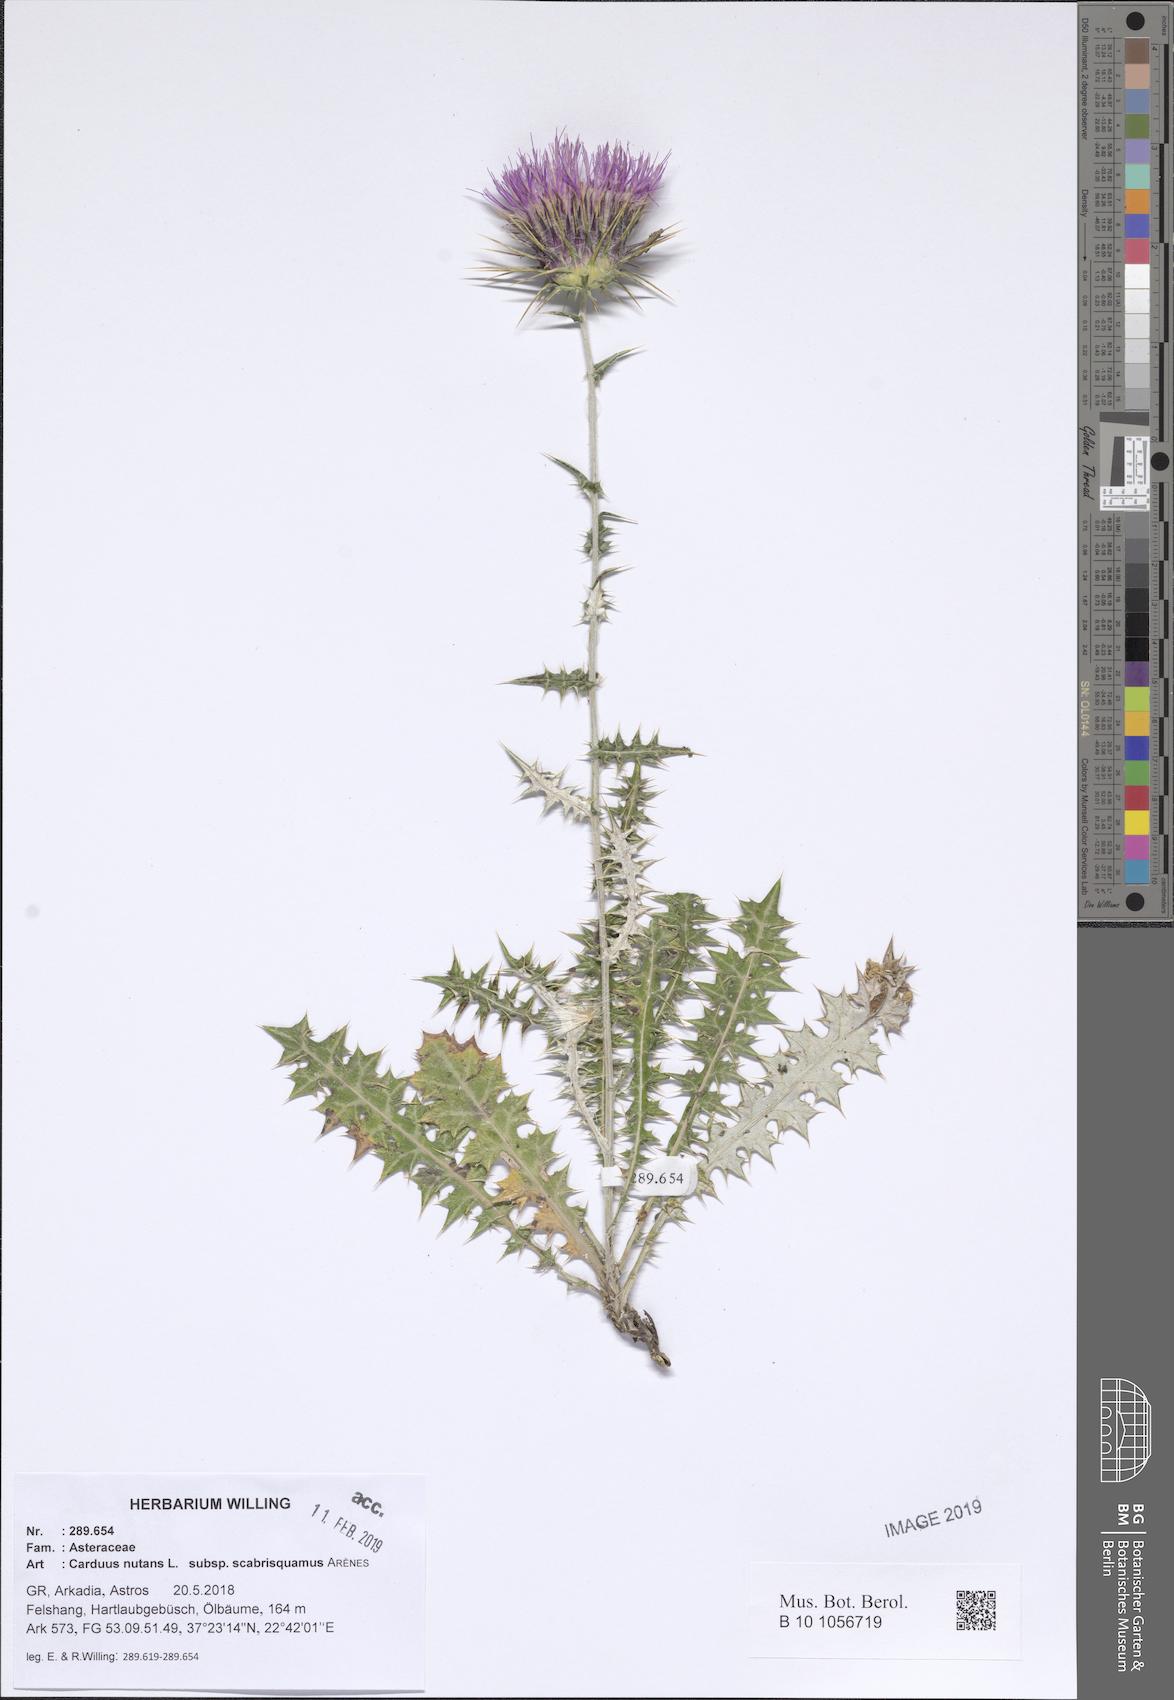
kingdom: Plantae
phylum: Tracheophyta
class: Magnoliopsida
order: Asterales
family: Asteraceae
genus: Carduus
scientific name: Carduus macrocephalus
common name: Giant thistle
